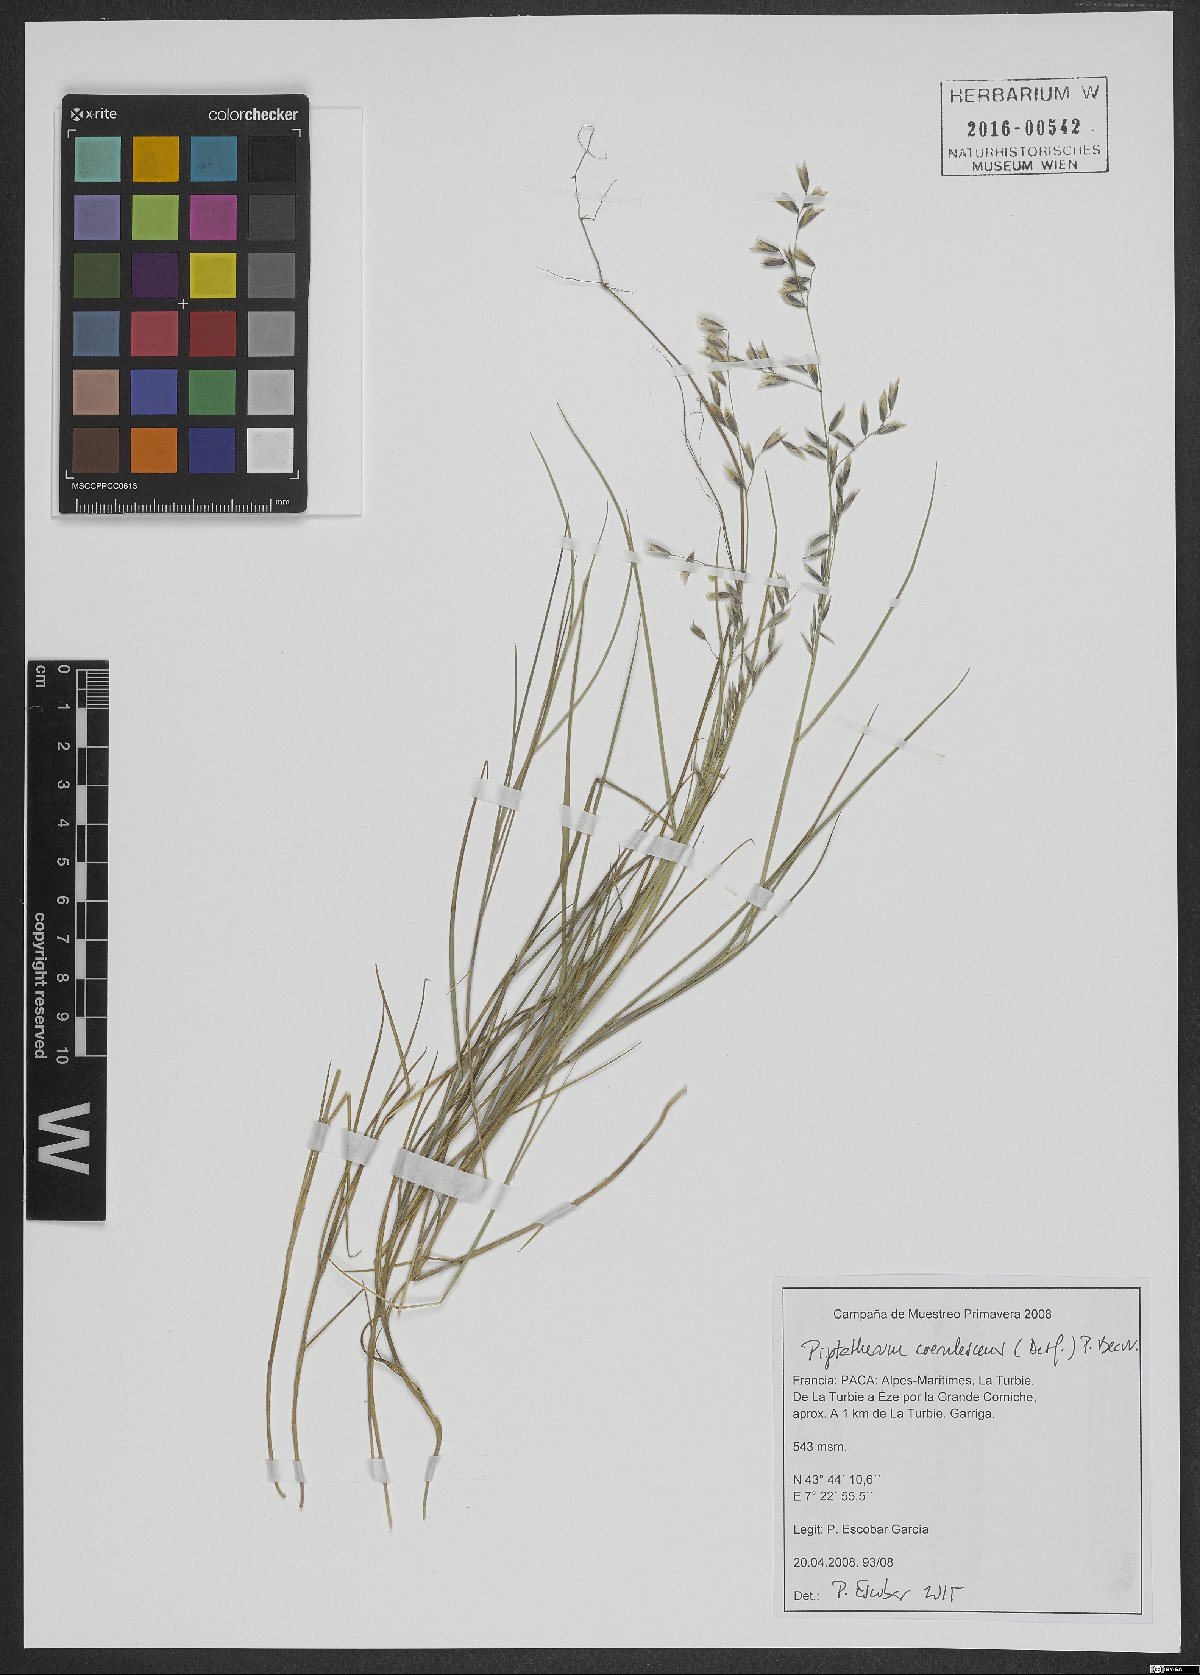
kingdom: Plantae
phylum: Tracheophyta
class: Liliopsida
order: Poales
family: Poaceae
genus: Piptatherum
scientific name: Piptatherum coerulescens
